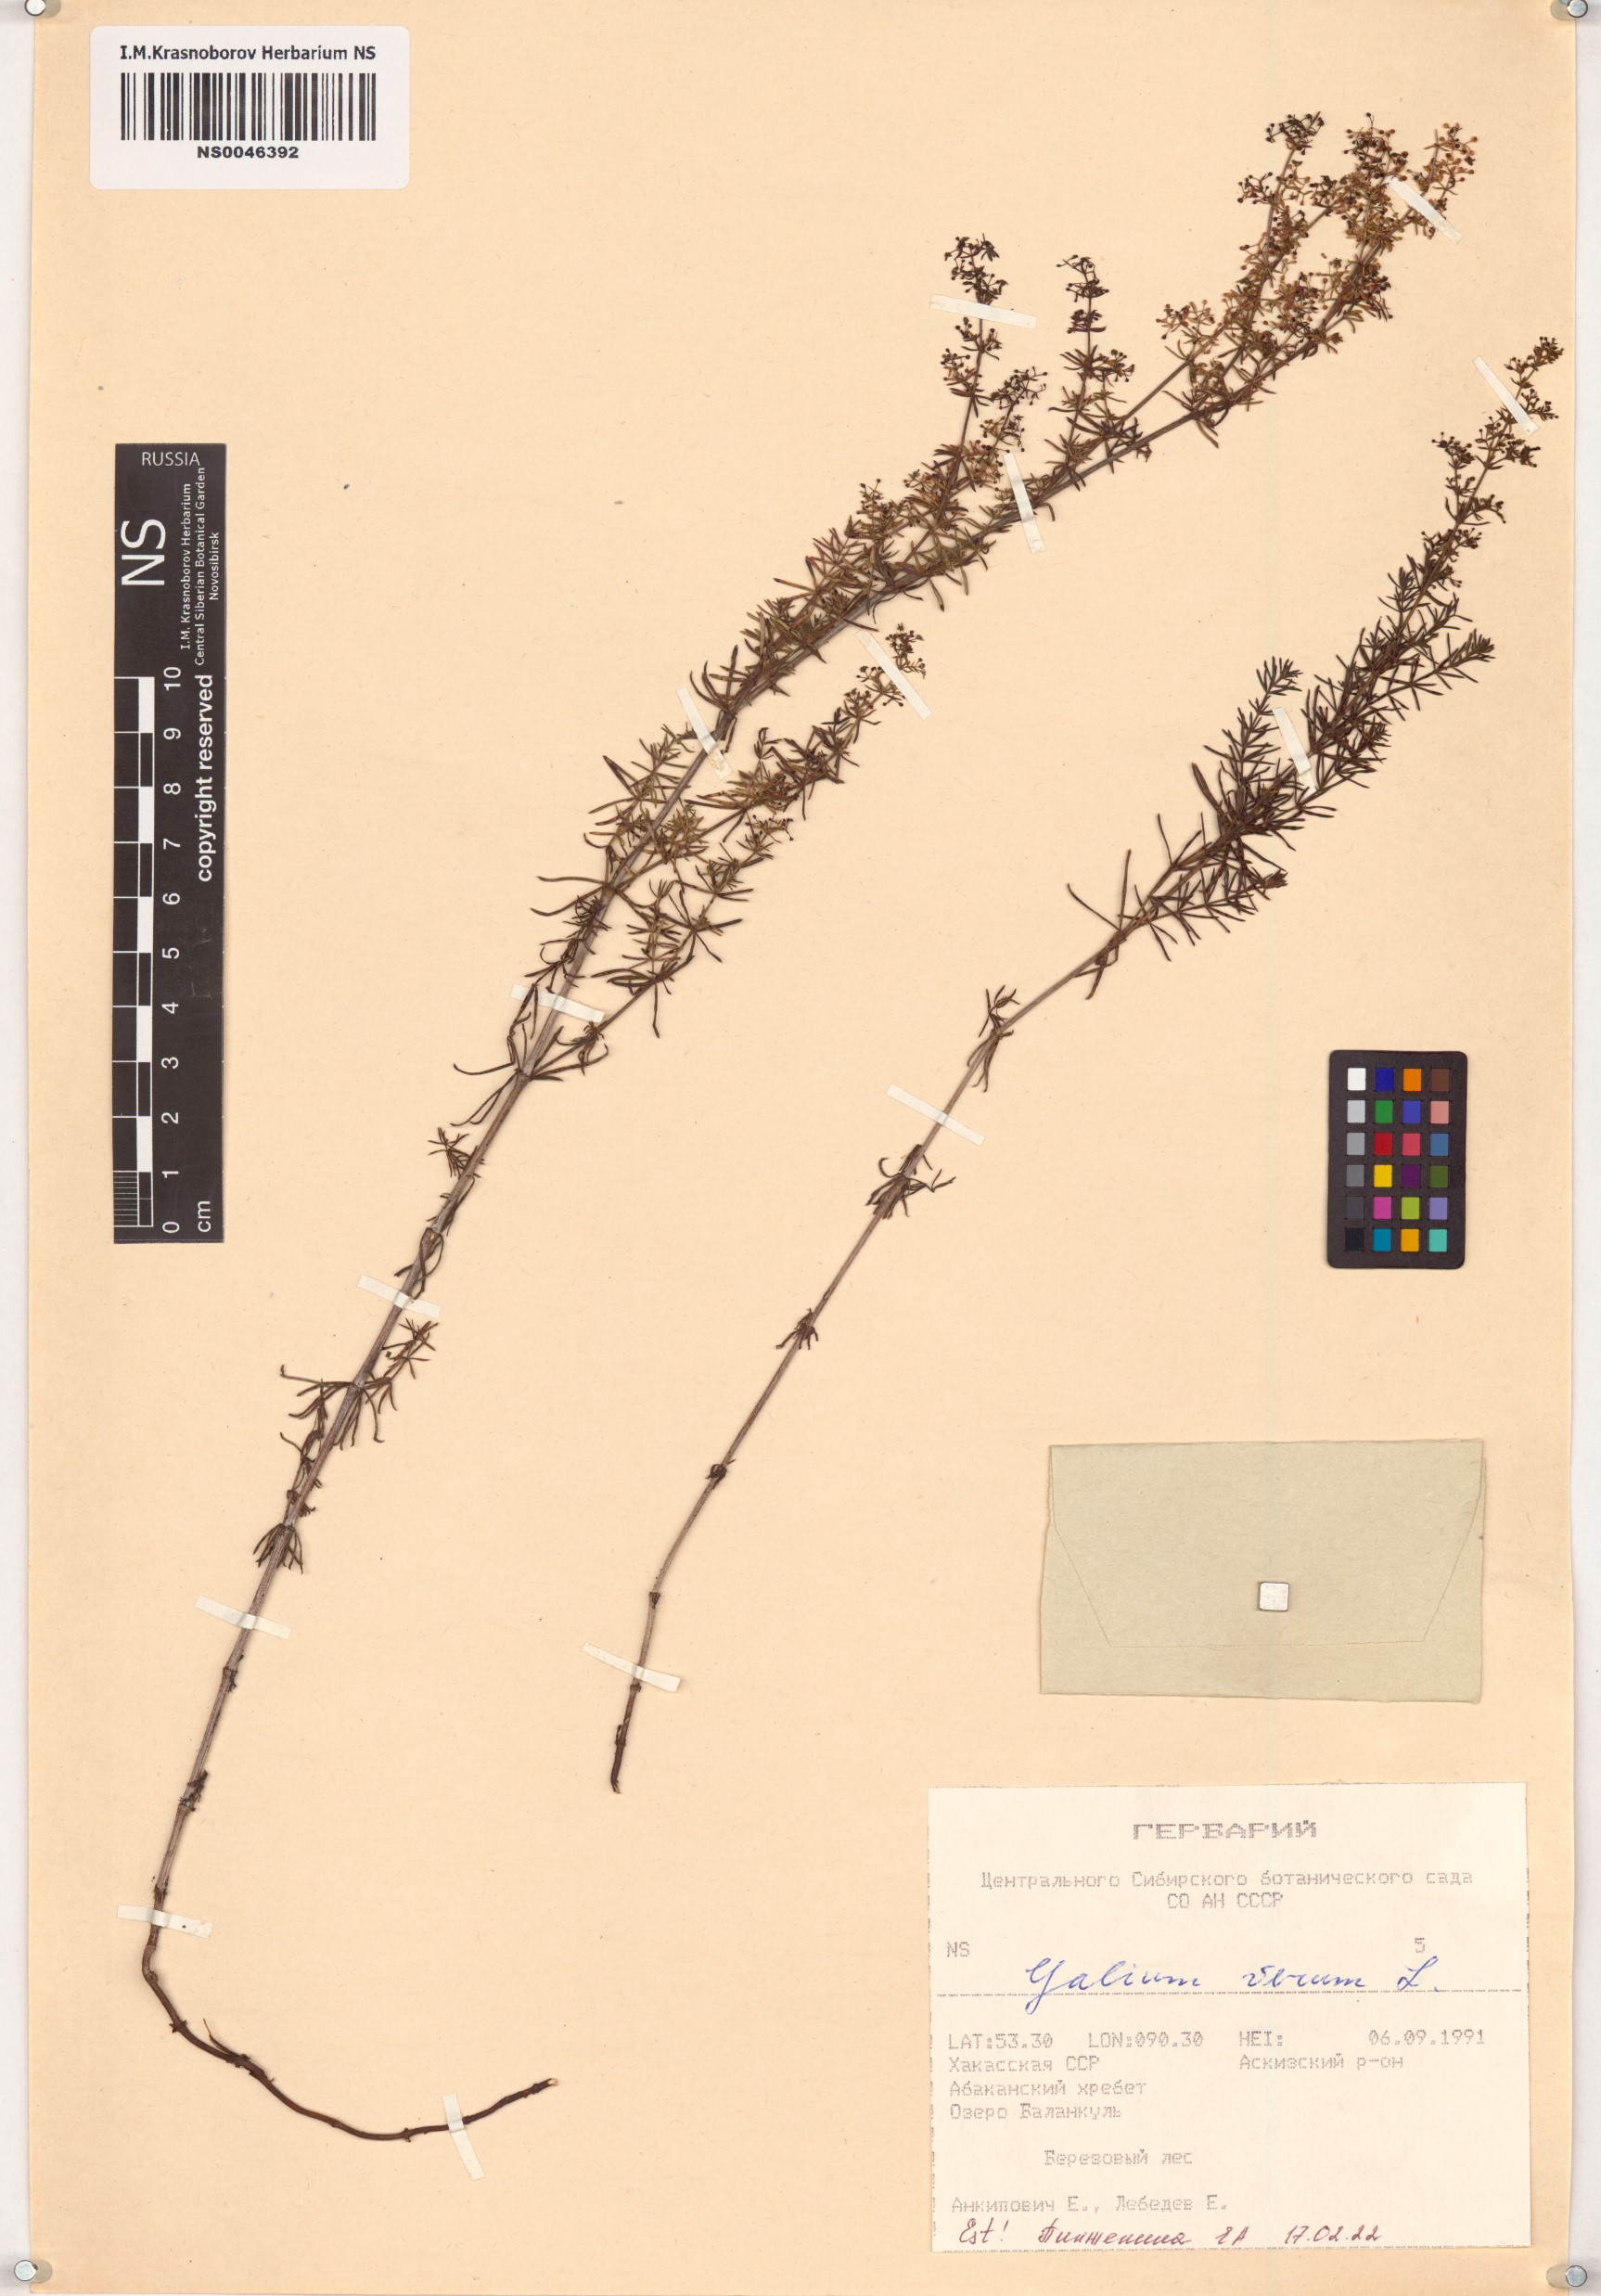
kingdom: Plantae
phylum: Tracheophyta
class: Magnoliopsida
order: Gentianales
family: Rubiaceae
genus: Galium
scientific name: Galium verum
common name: Lady's bedstraw
